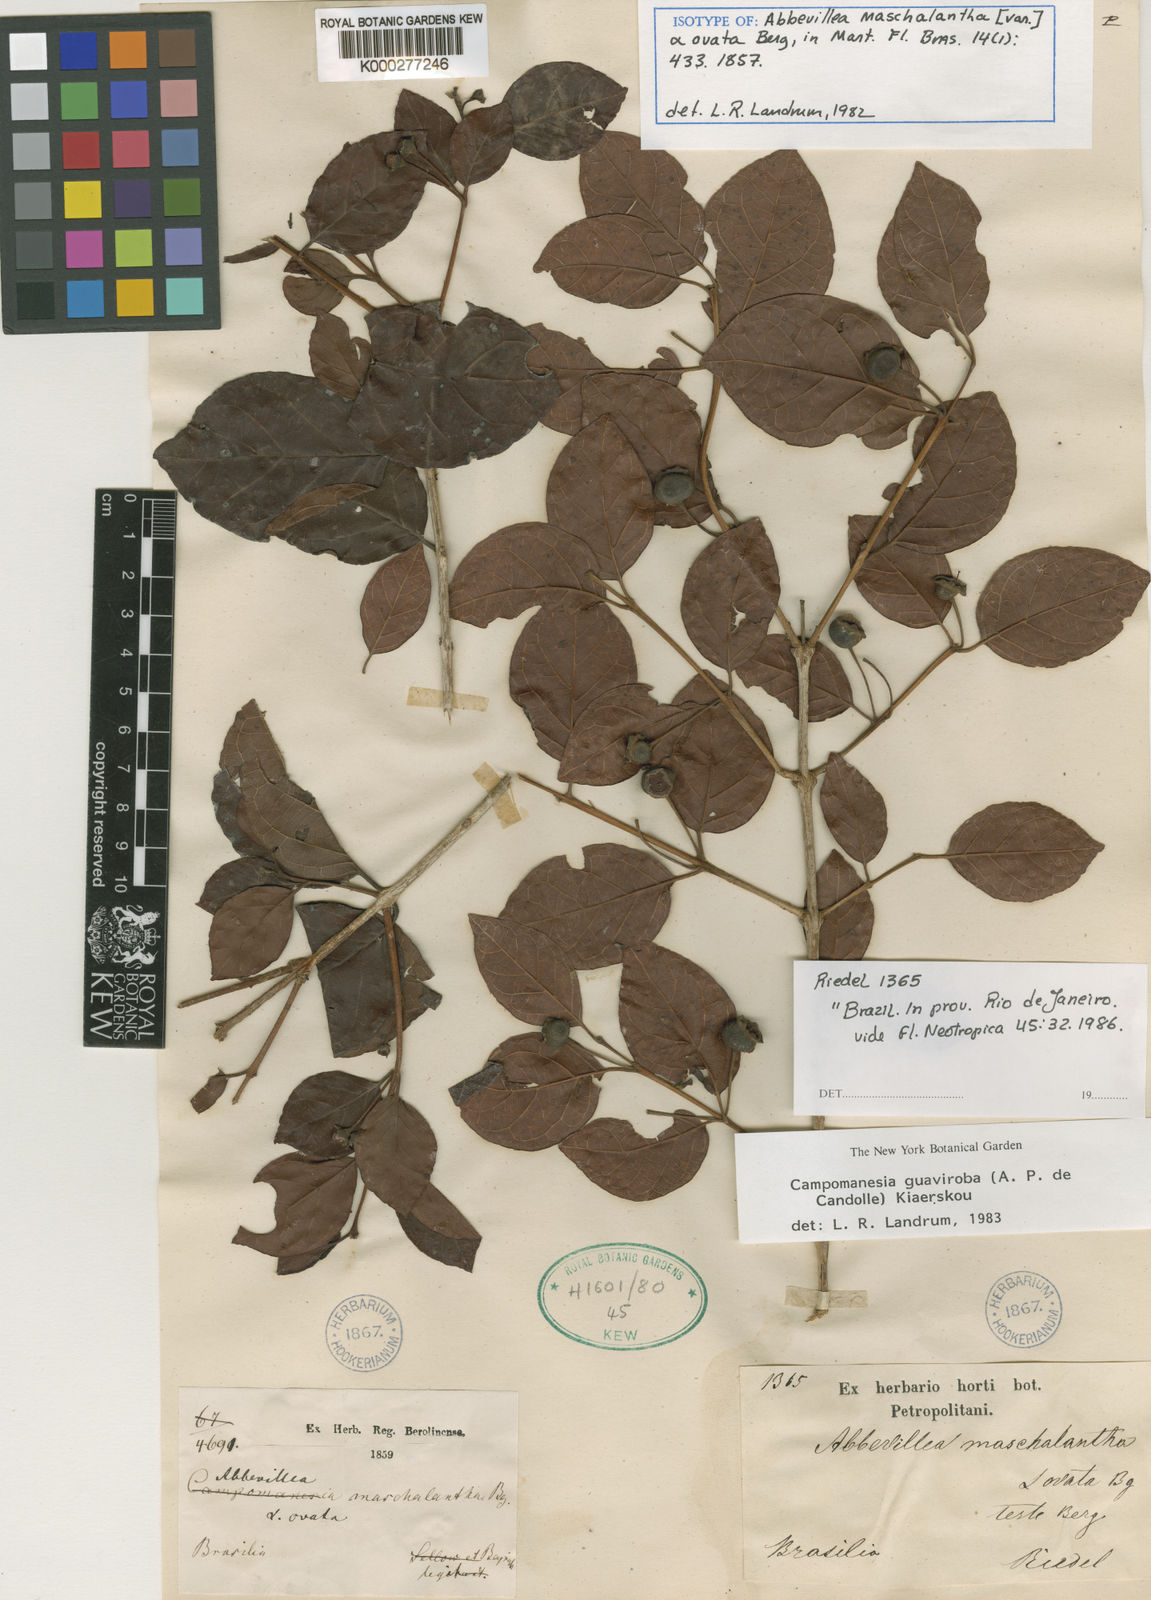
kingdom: Plantae
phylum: Tracheophyta
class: Magnoliopsida
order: Myrtales
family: Myrtaceae
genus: Campomanesia
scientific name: Campomanesia guaviroba
